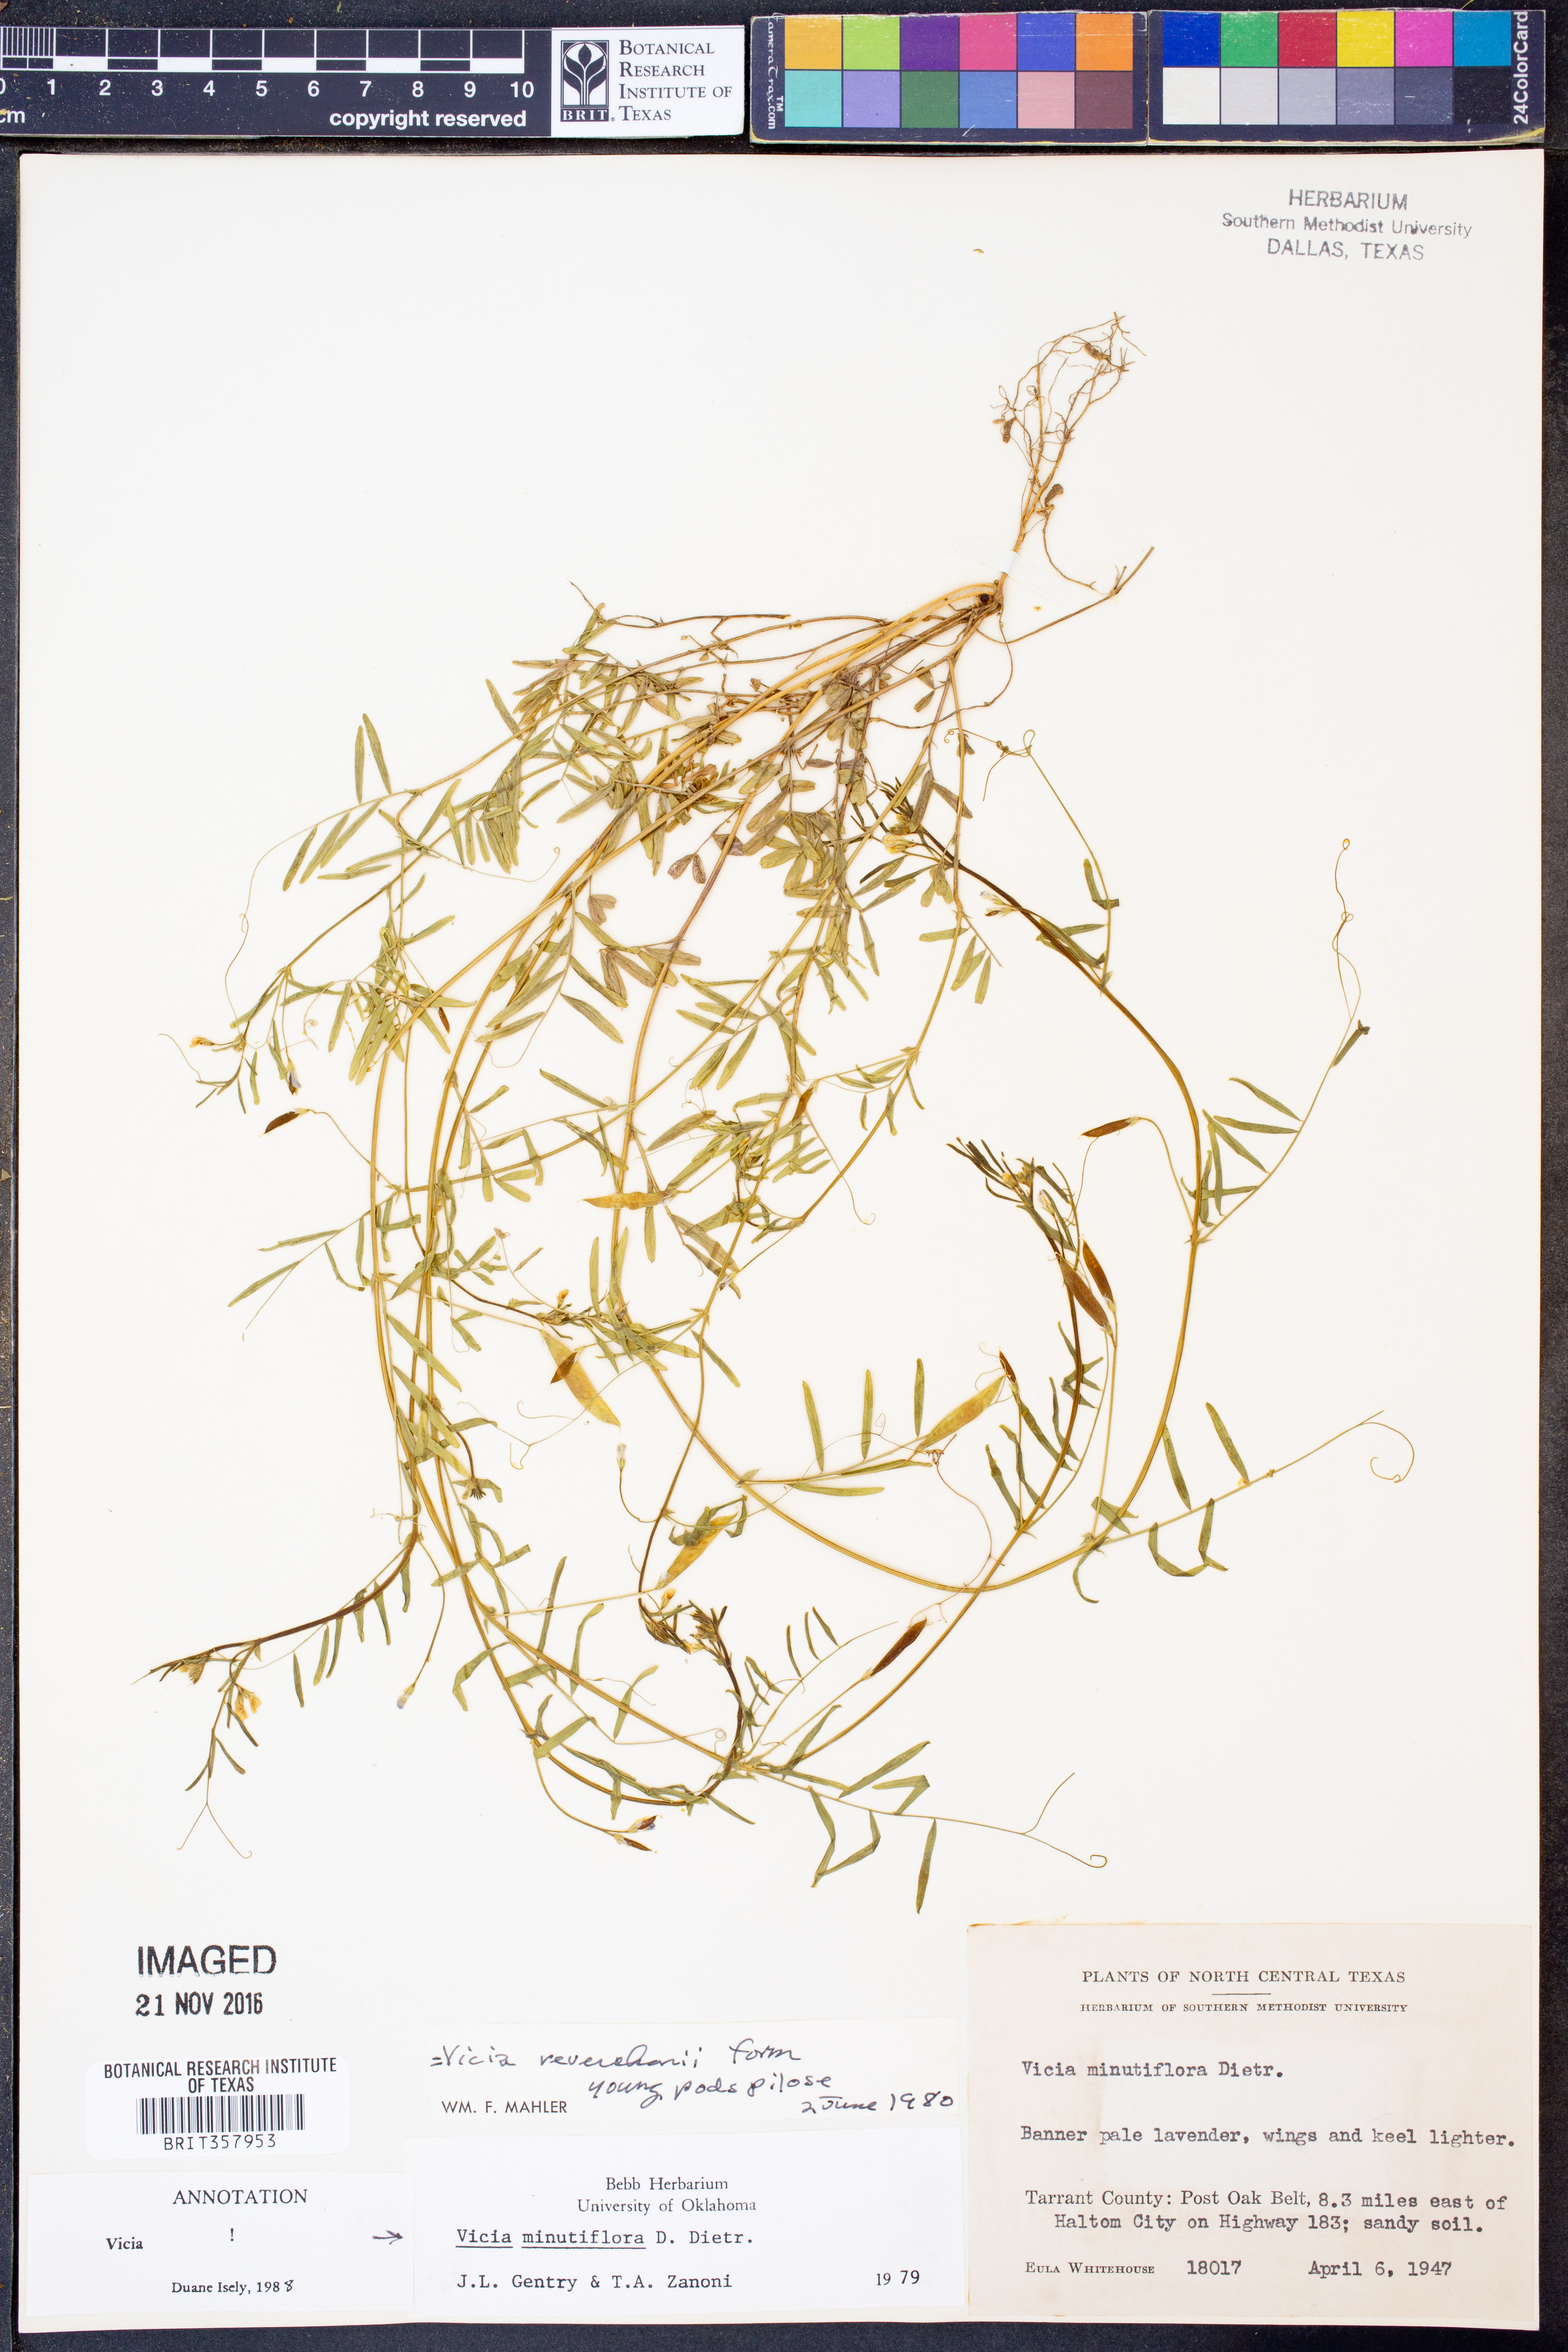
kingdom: Plantae
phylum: Tracheophyta
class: Magnoliopsida
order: Fabales
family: Fabaceae
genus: Vicia
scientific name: Vicia minutiflora
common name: Pygmy-flower vetch
